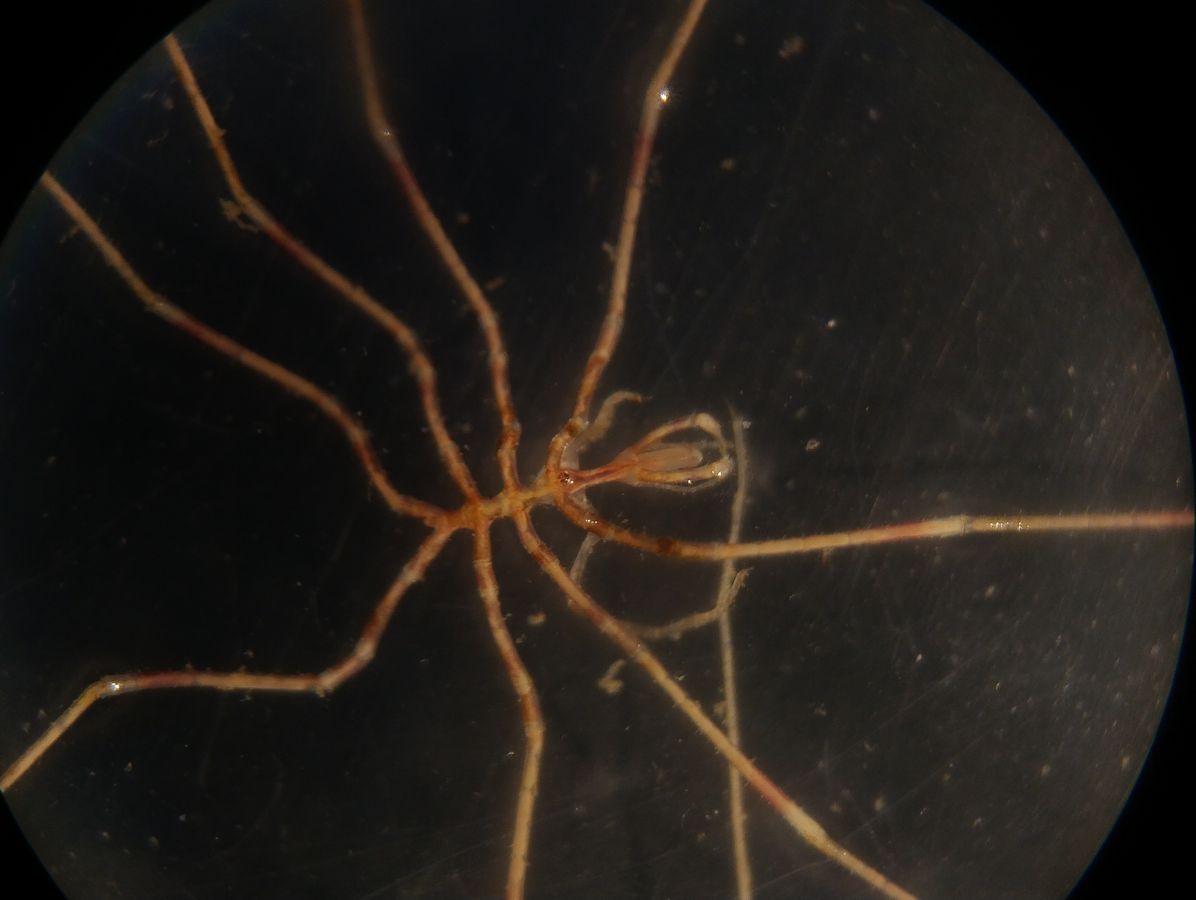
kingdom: Animalia
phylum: Arthropoda
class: Pycnogonida
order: Pantopoda
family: Nymphonidae
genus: Nymphon
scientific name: Nymphon micronyx
